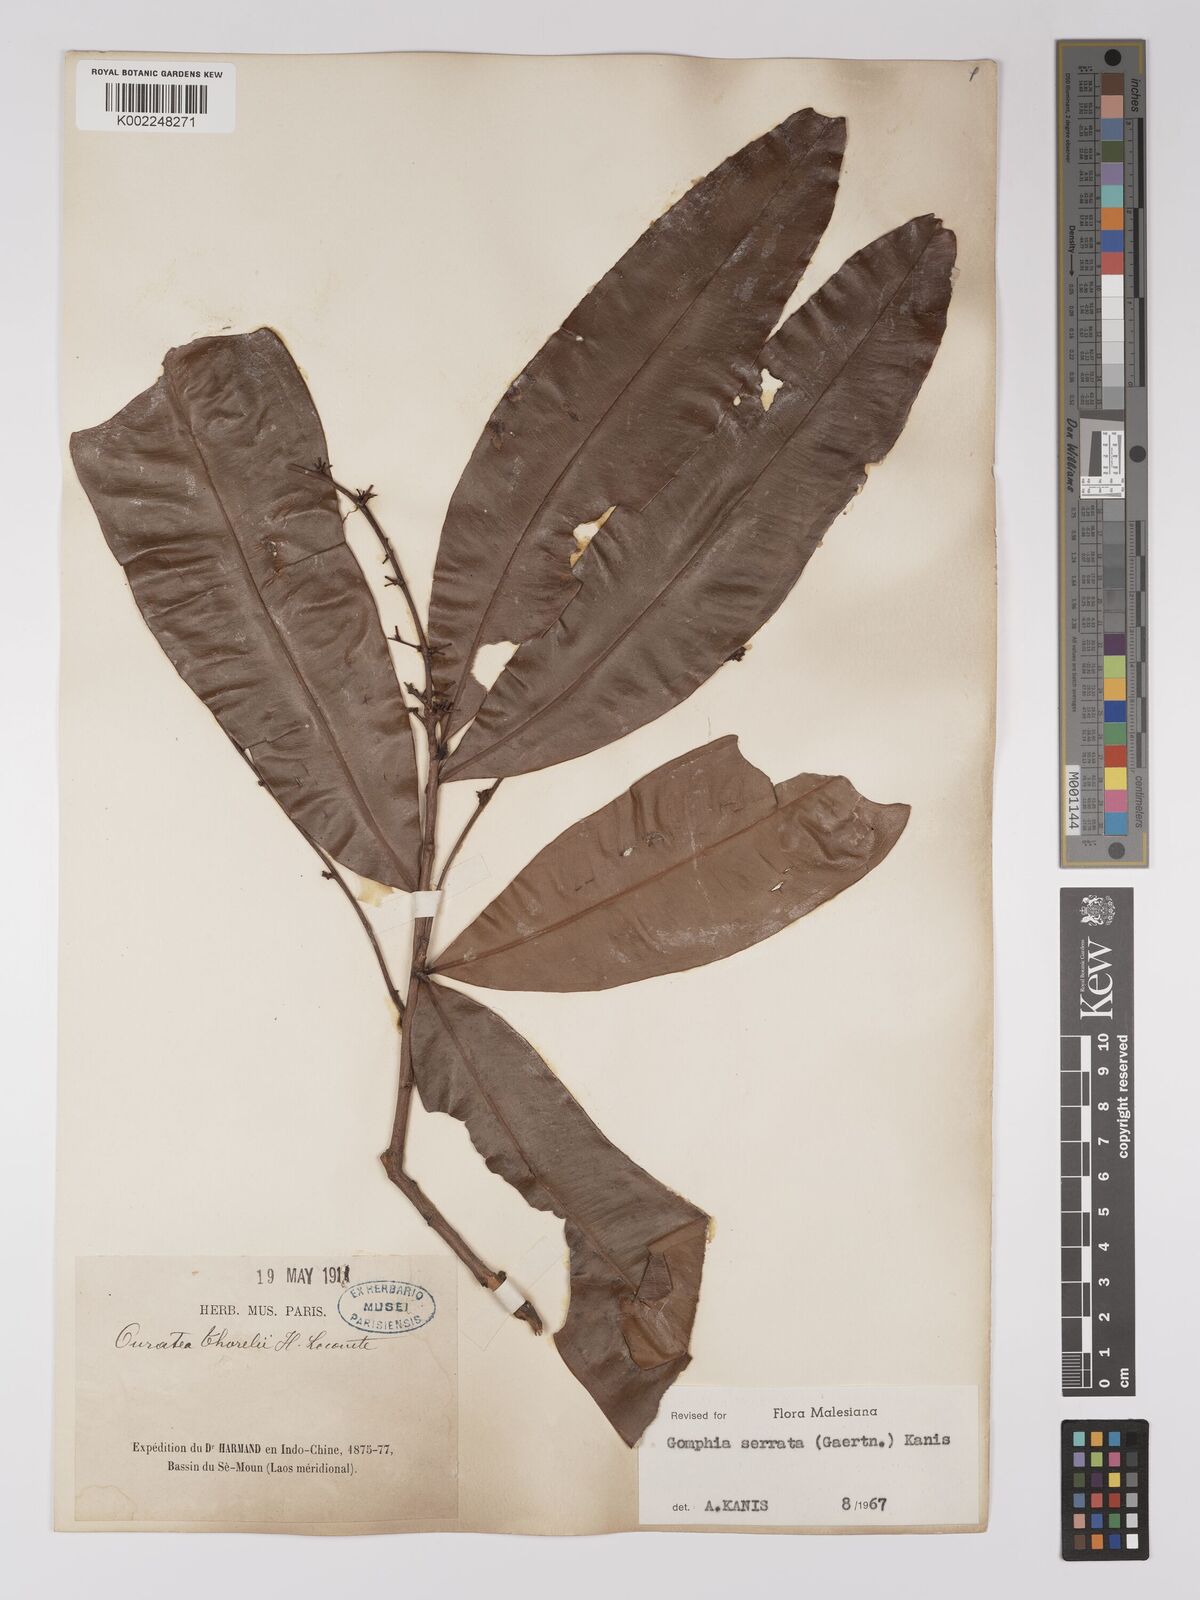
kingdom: Plantae
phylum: Tracheophyta
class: Magnoliopsida
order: Malpighiales
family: Ochnaceae
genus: Gomphia
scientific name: Gomphia serrata
